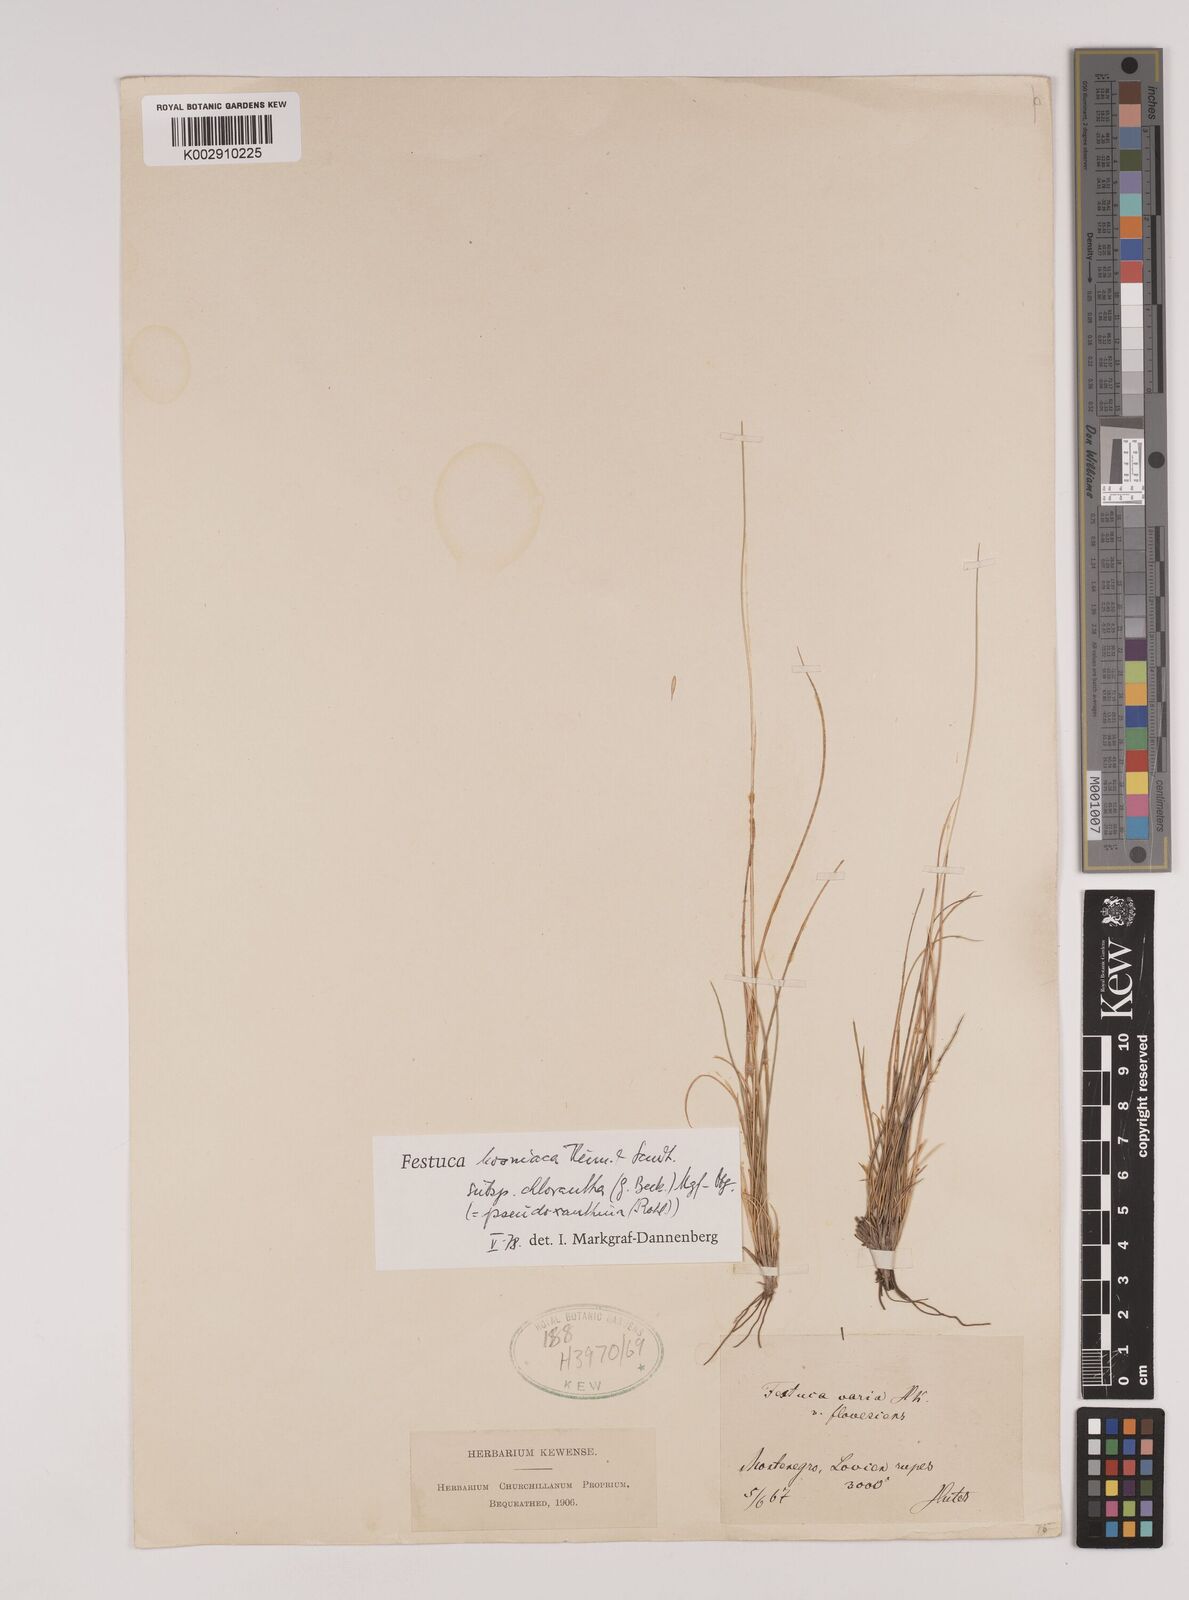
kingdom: Plantae
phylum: Tracheophyta
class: Liliopsida
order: Poales
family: Poaceae
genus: Festuca
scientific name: Festuca bosniaca
